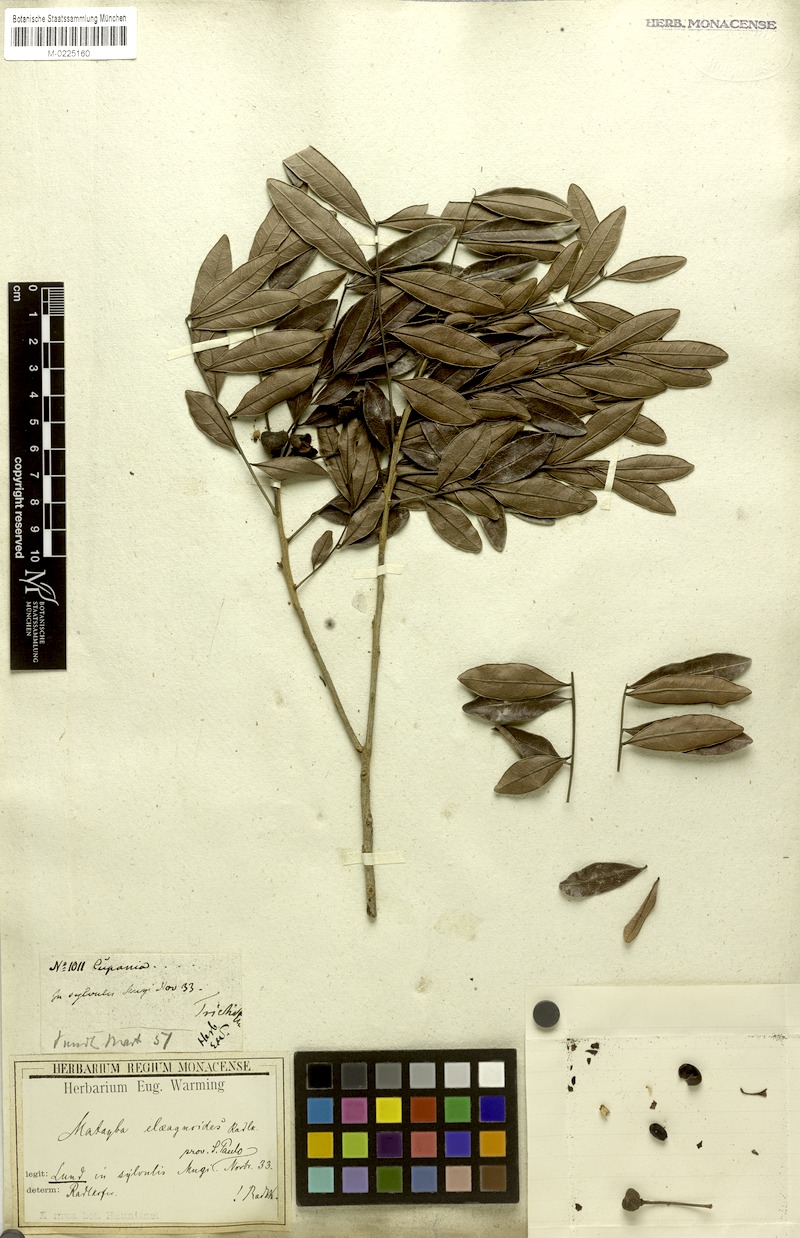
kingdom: Plantae
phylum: Tracheophyta
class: Magnoliopsida
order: Sapindales
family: Sapindaceae
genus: Matayba
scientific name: Matayba elaeagnoides
